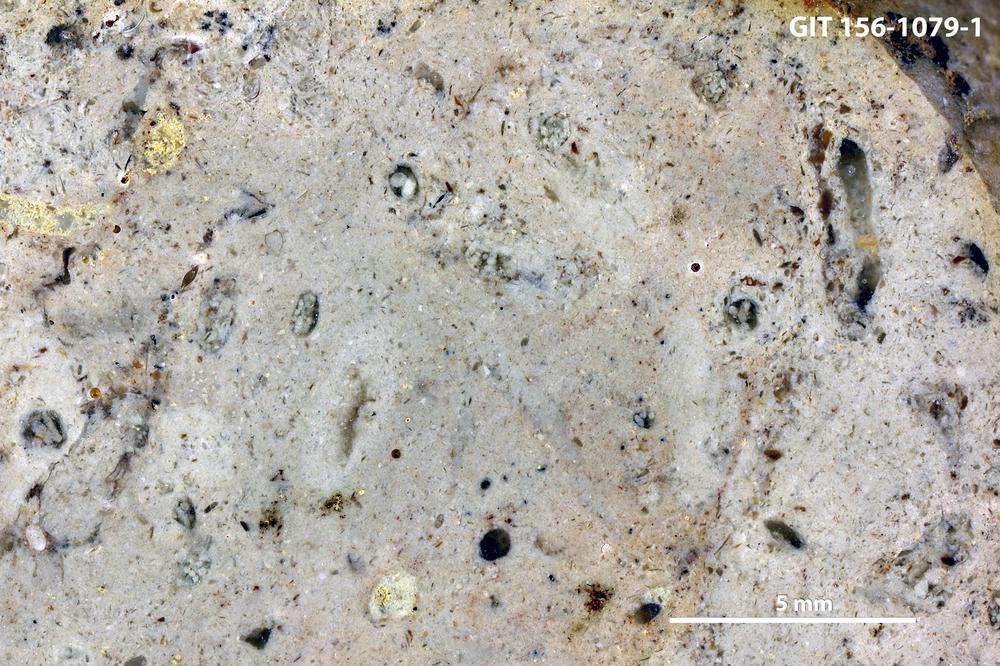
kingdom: Animalia
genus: Tubularina
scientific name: Tubularina
